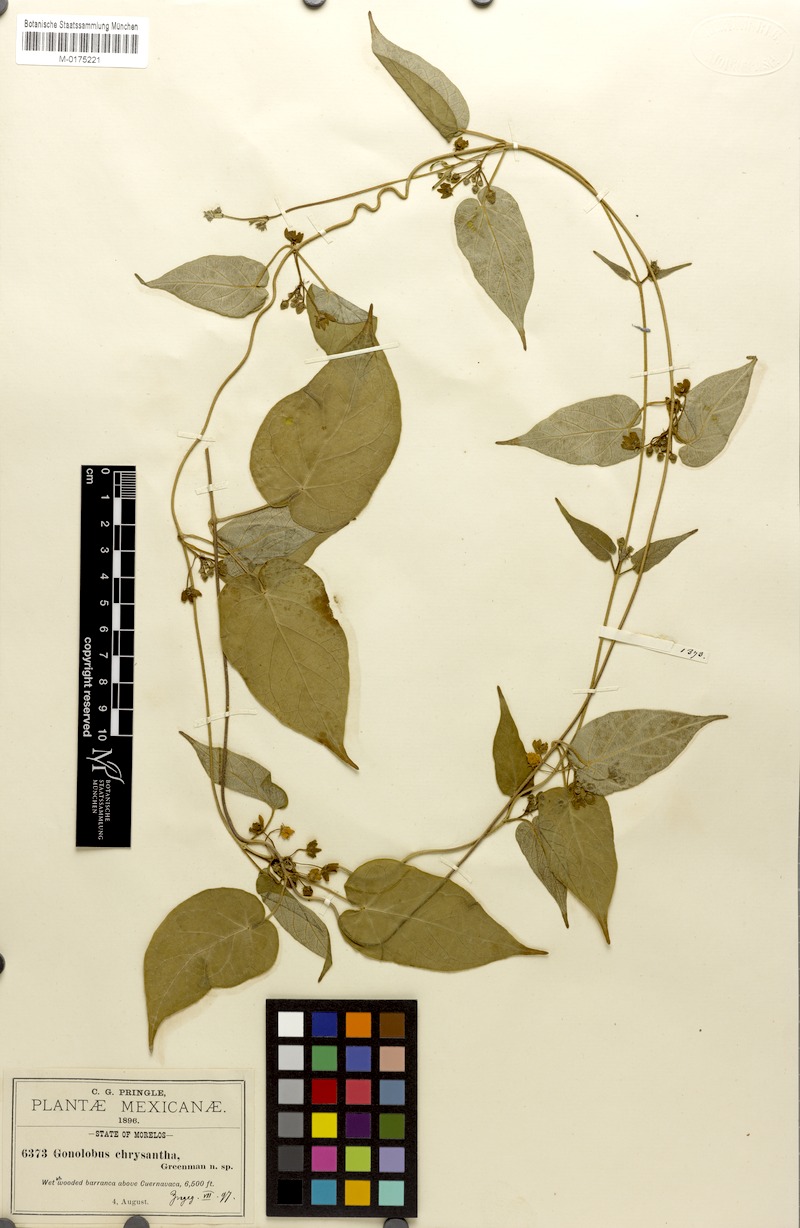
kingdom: Plantae
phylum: Tracheophyta
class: Magnoliopsida
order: Gentianales
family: Apocynaceae
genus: Matelea
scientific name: Matelea chrysantha
